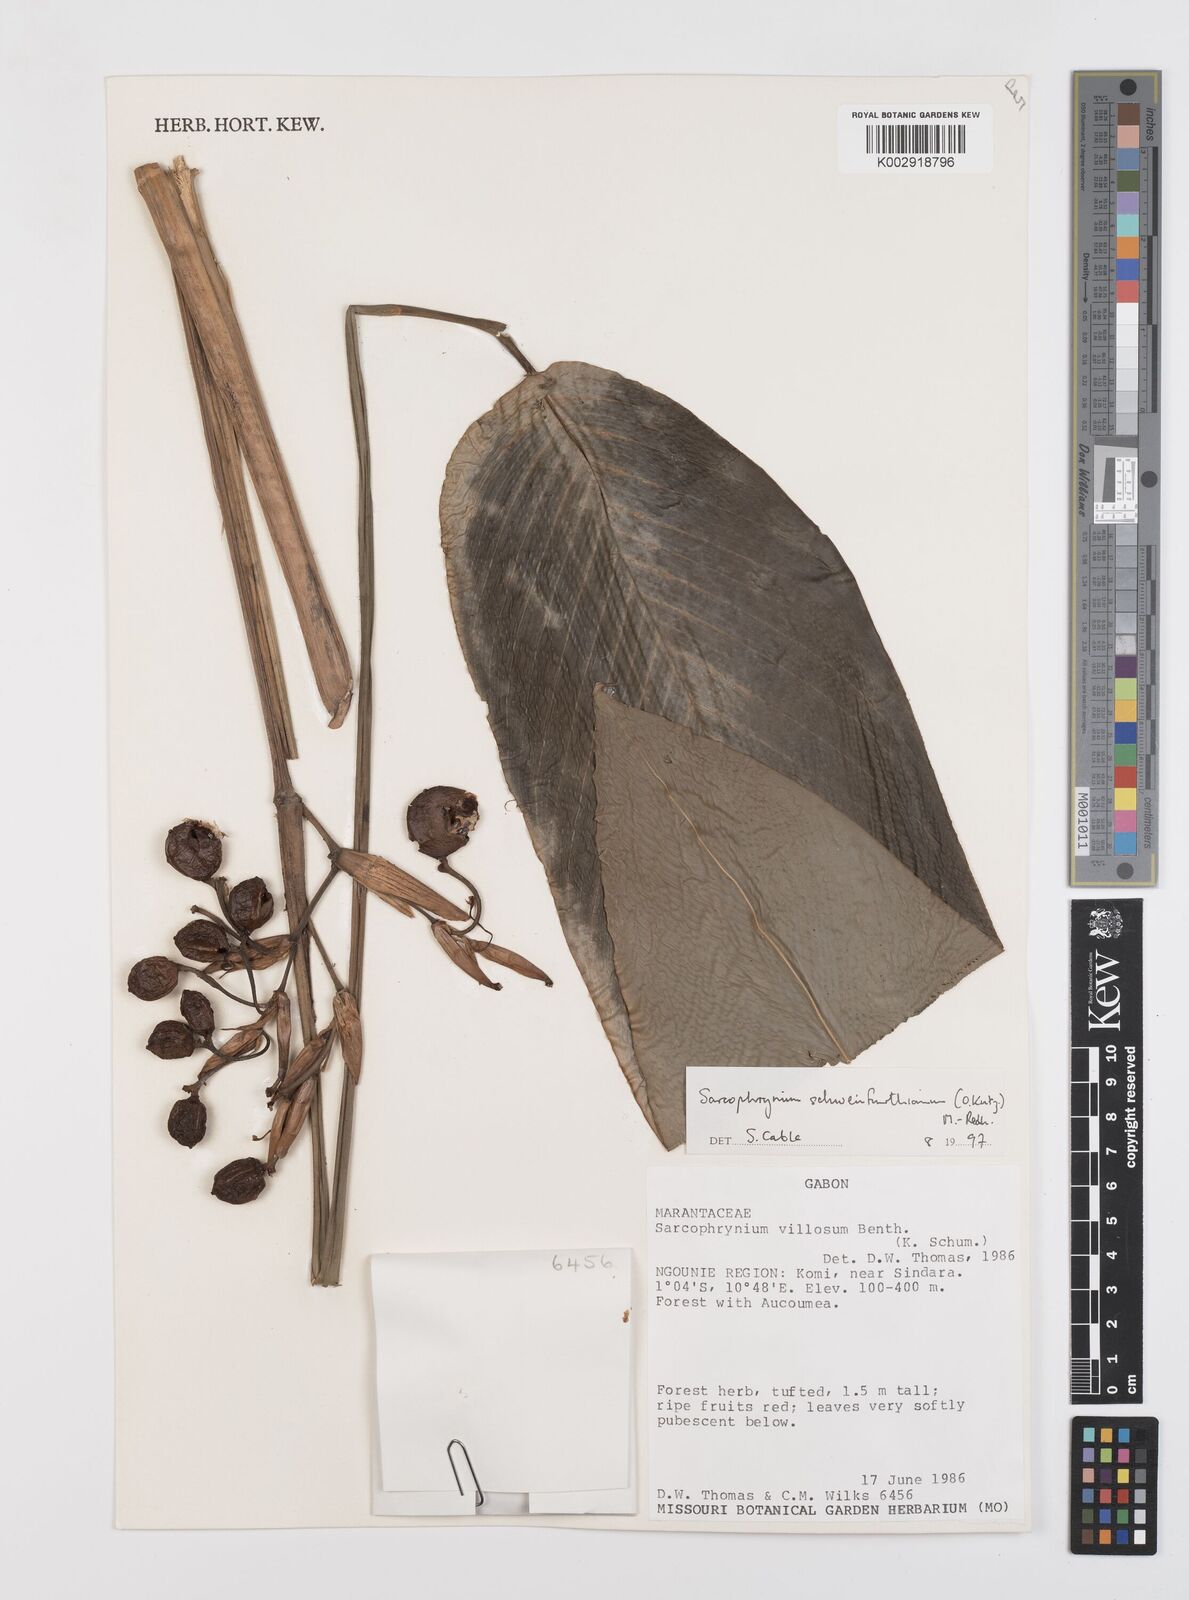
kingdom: Plantae
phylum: Tracheophyta
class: Liliopsida
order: Zingiberales
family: Marantaceae
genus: Sarcophrynium
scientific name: Sarcophrynium schweinfurthianum
